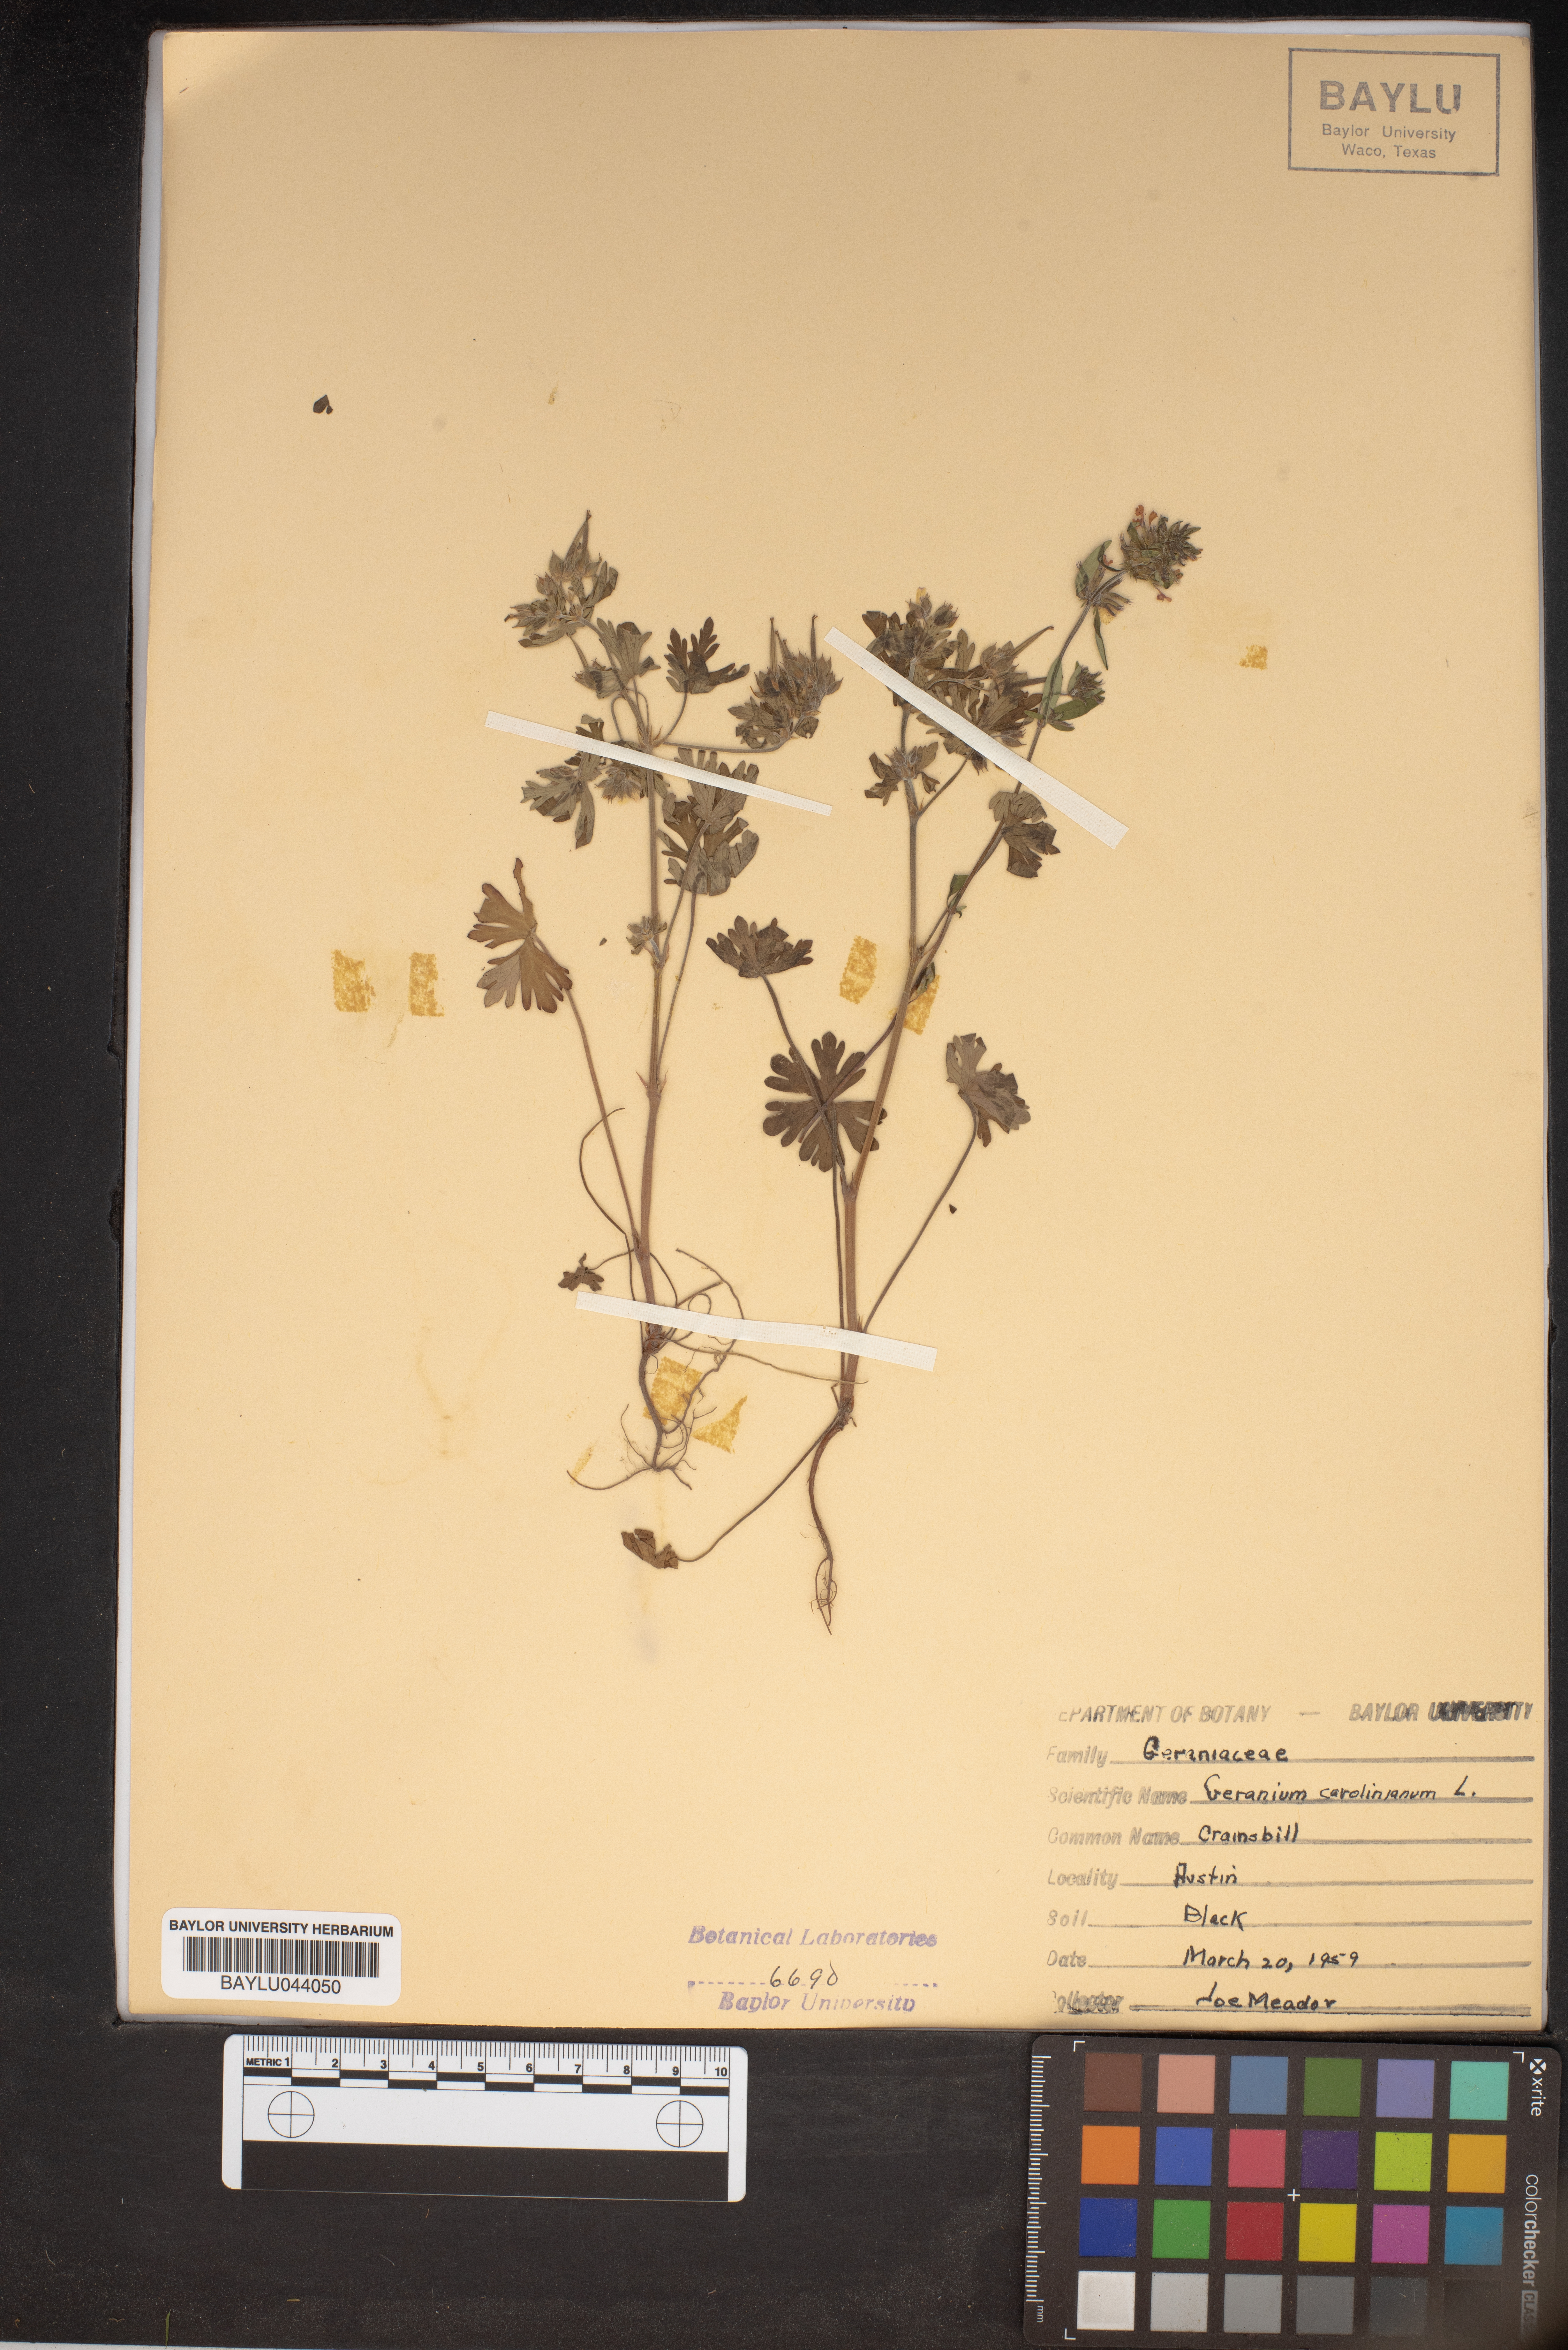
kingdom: Plantae
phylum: Tracheophyta
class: Magnoliopsida
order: Geraniales
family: Geraniaceae
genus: Geranium
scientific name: Geranium carolinianum
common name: Carolina crane's-bill
